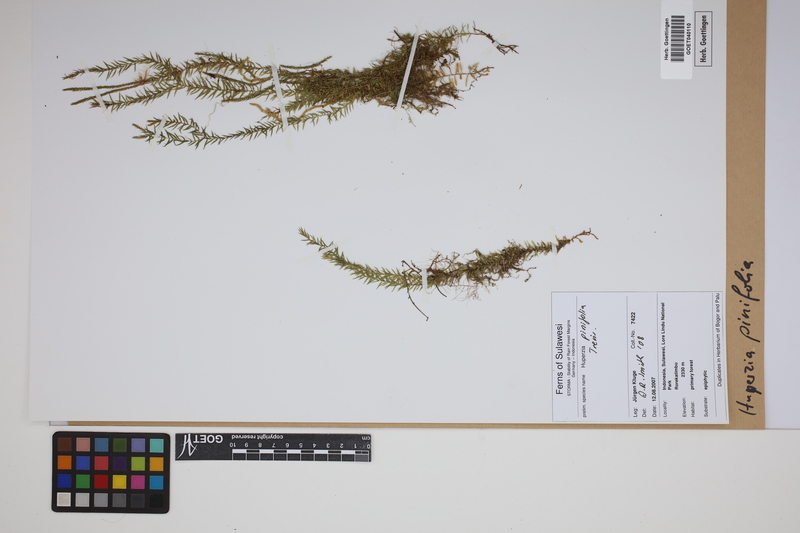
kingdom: Plantae
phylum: Tracheophyta
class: Lycopodiopsida
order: Lycopodiales
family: Lycopodiaceae
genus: Phlegmariurus
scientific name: Phlegmariurus pinifolius
